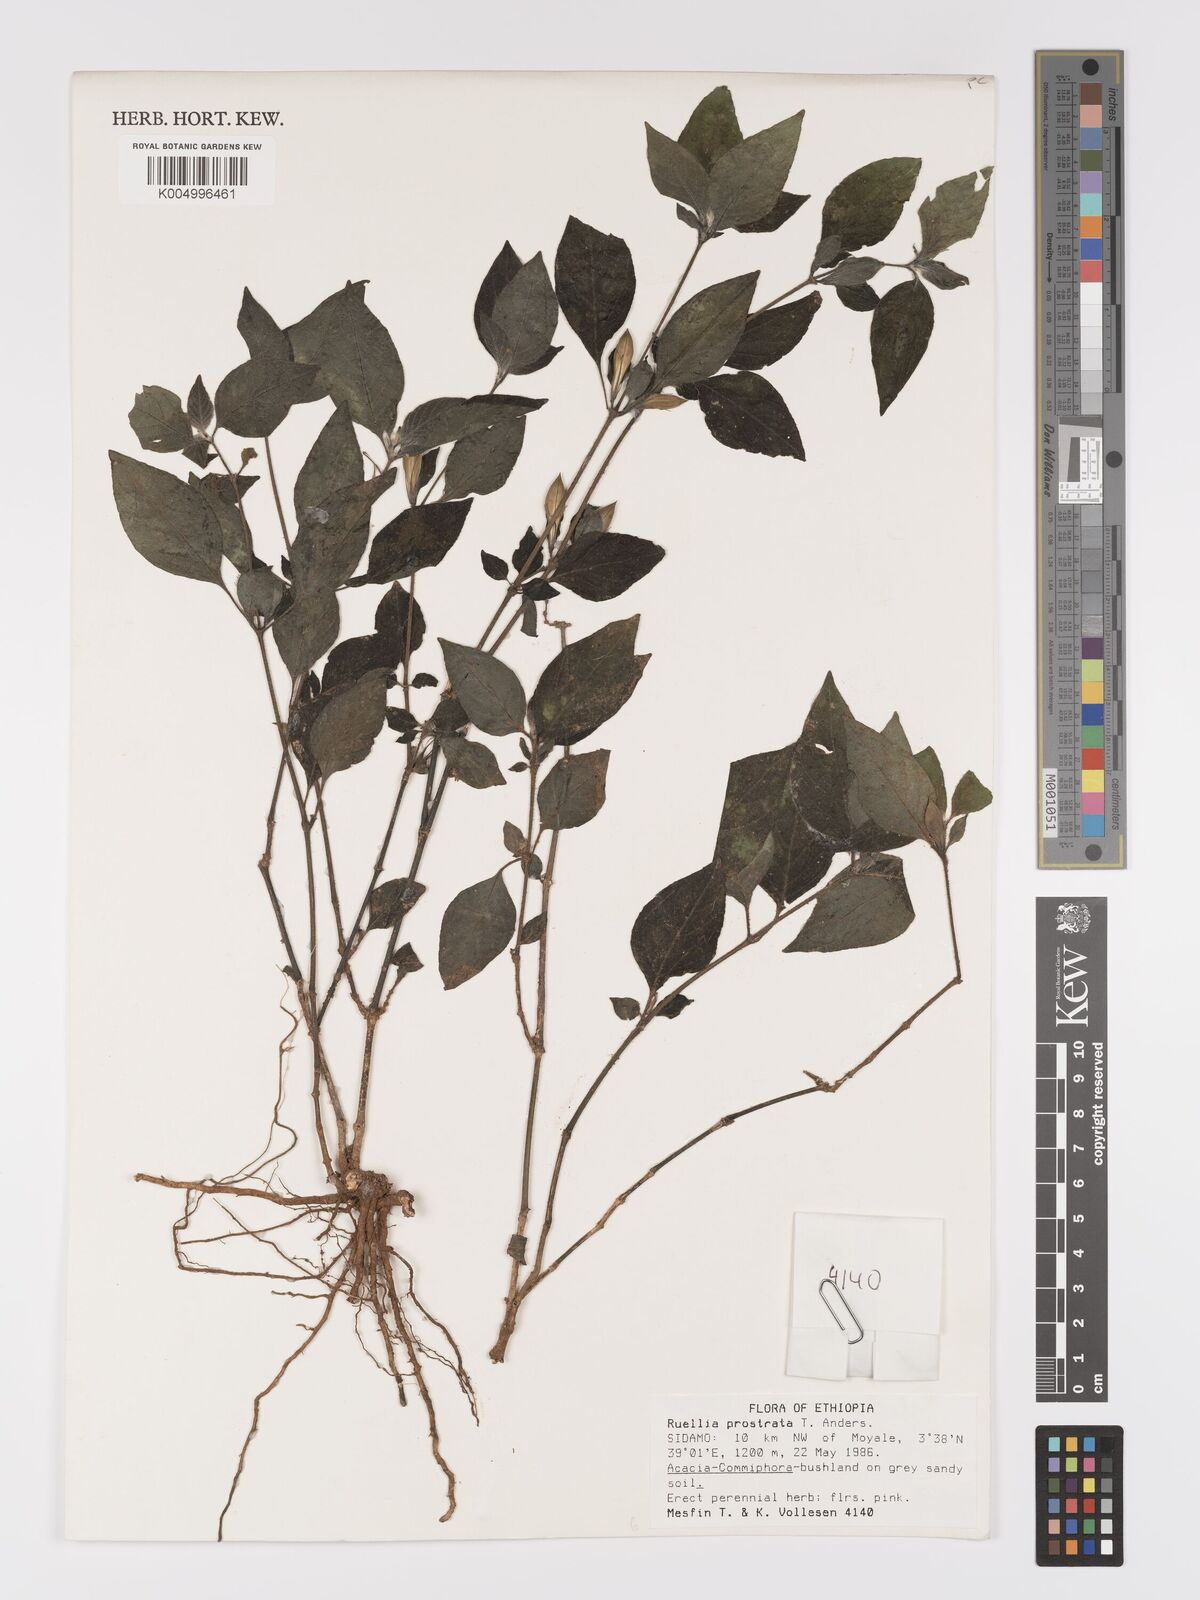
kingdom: Plantae
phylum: Tracheophyta
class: Magnoliopsida
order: Lamiales
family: Acanthaceae
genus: Ruellia
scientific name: Ruellia
